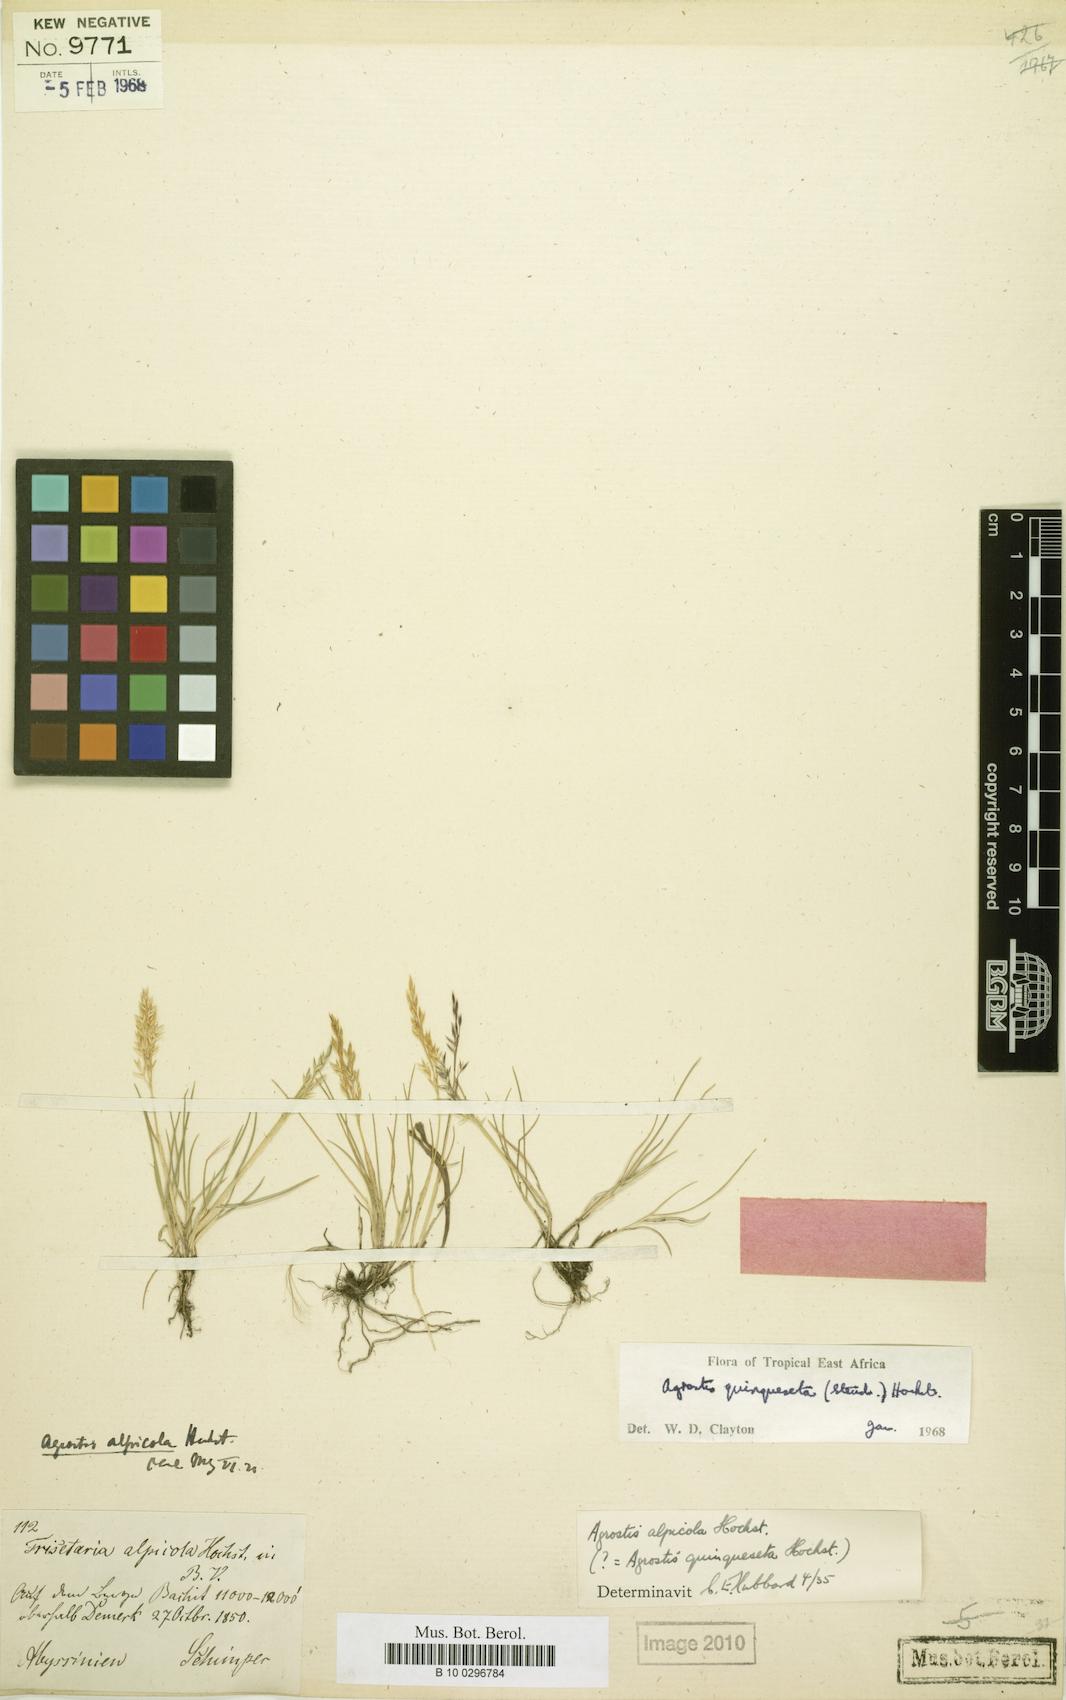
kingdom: Plantae
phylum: Tracheophyta
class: Liliopsida
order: Poales
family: Poaceae
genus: Agrostis
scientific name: Agrostis quinqueseta
